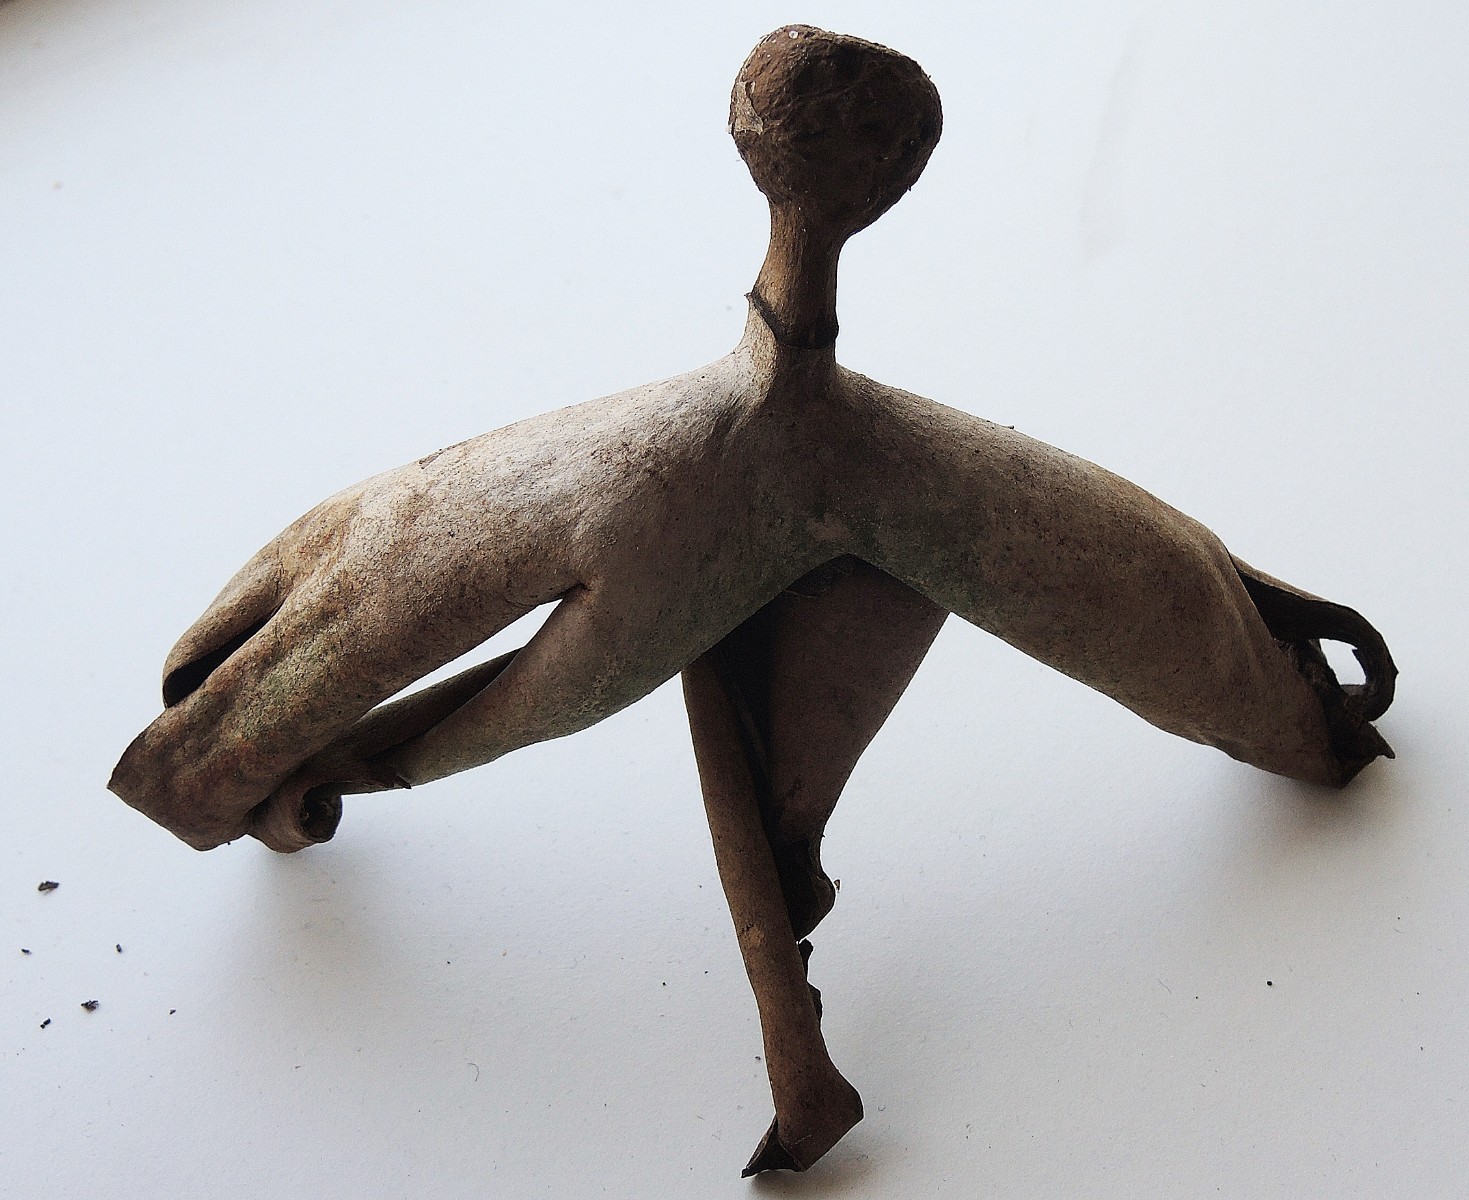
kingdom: Fungi
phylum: Basidiomycota
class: Agaricomycetes
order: Geastrales
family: Geastraceae
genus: Geastrum
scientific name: Geastrum melanocephalum
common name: håret stjernebold
